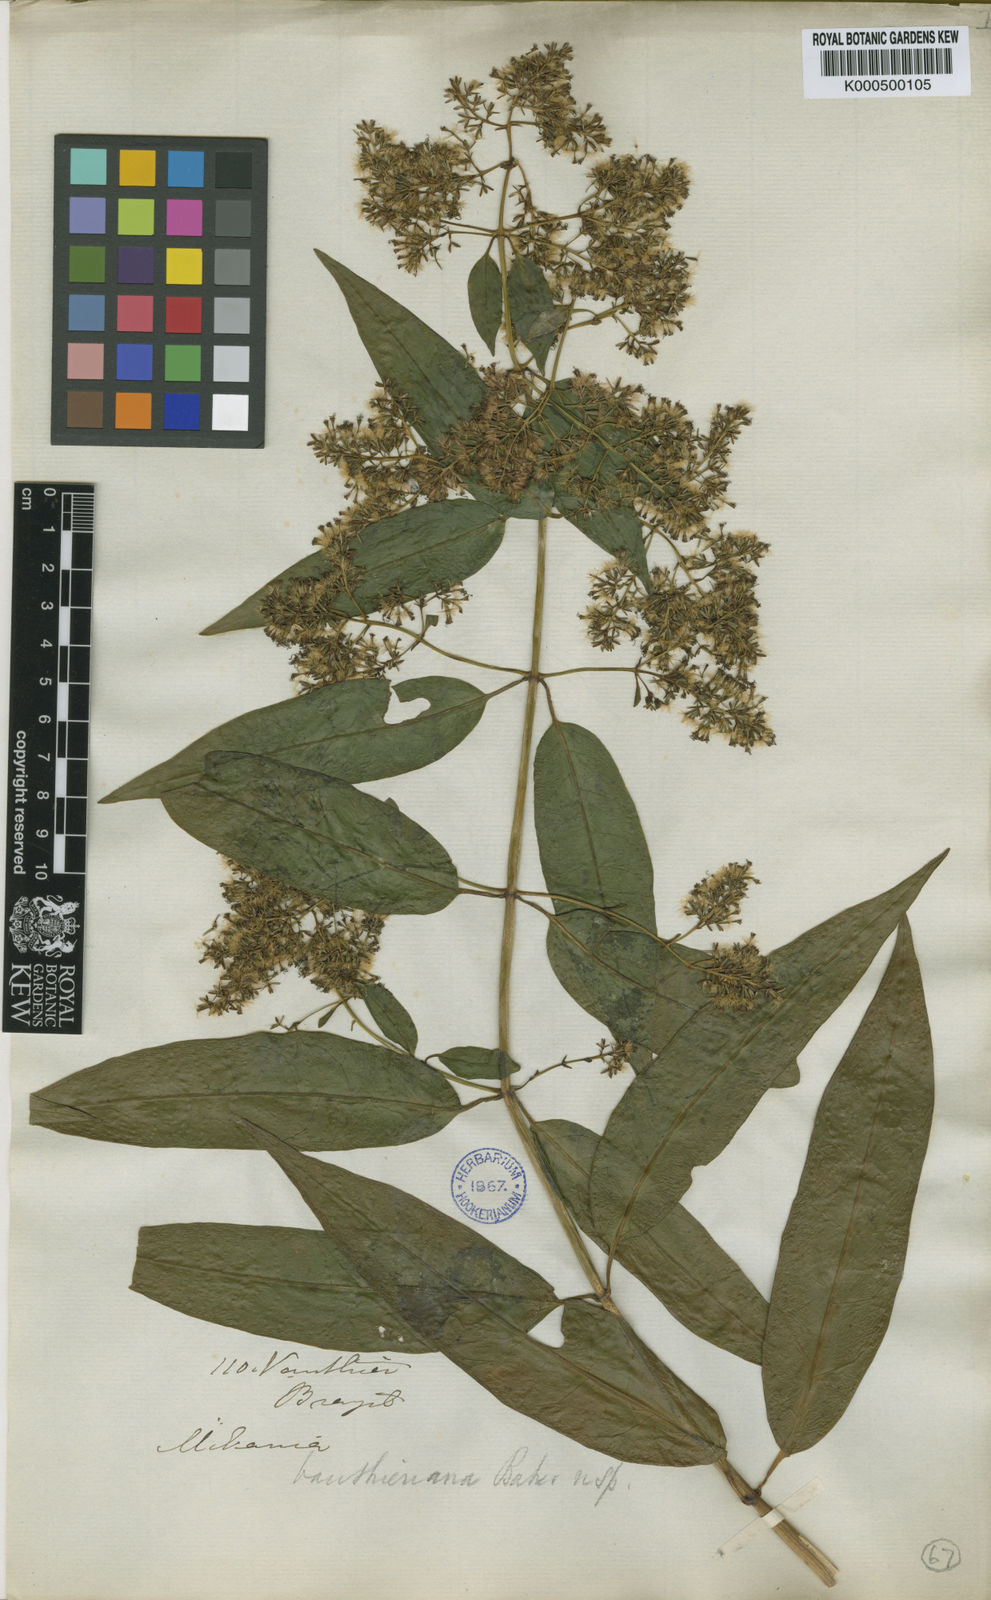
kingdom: Plantae
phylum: Tracheophyta
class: Magnoliopsida
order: Asterales
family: Asteraceae
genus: Mikania
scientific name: Mikania vauthieriana
